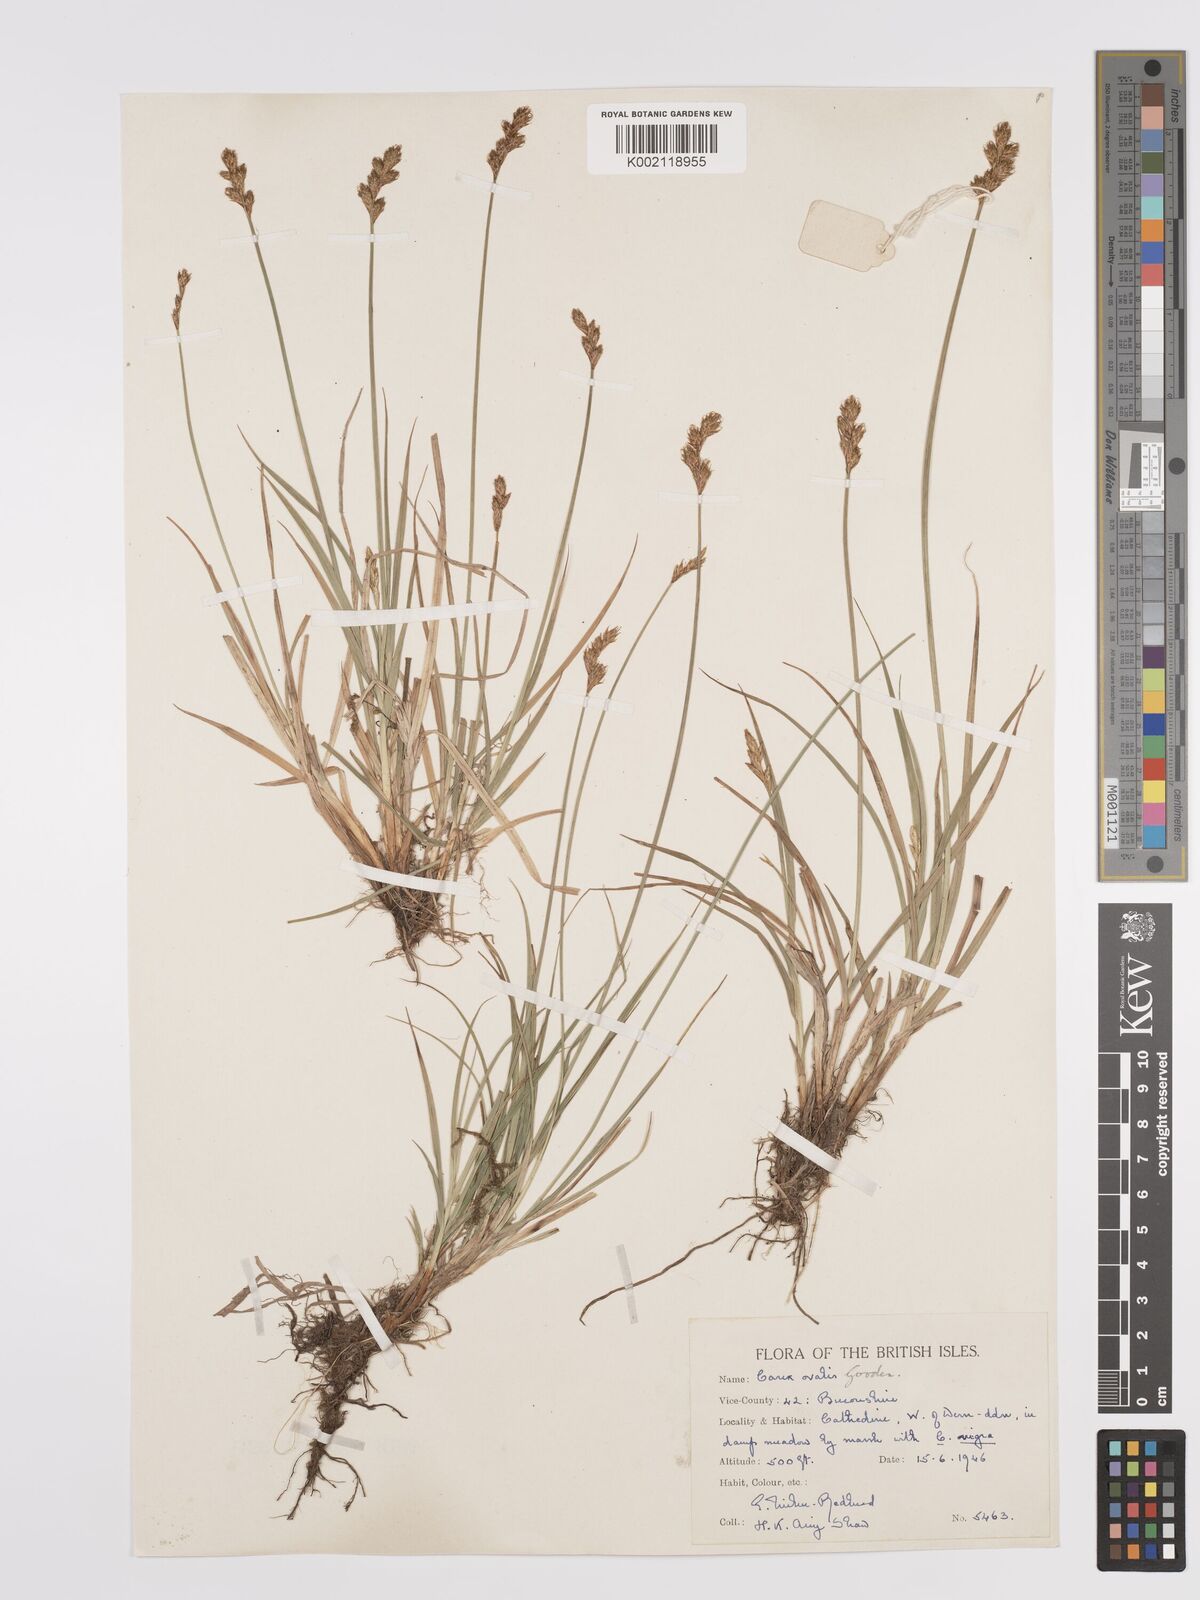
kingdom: Plantae
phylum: Tracheophyta
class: Liliopsida
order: Poales
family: Cyperaceae
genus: Carex
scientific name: Carex leporina
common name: Oval sedge
